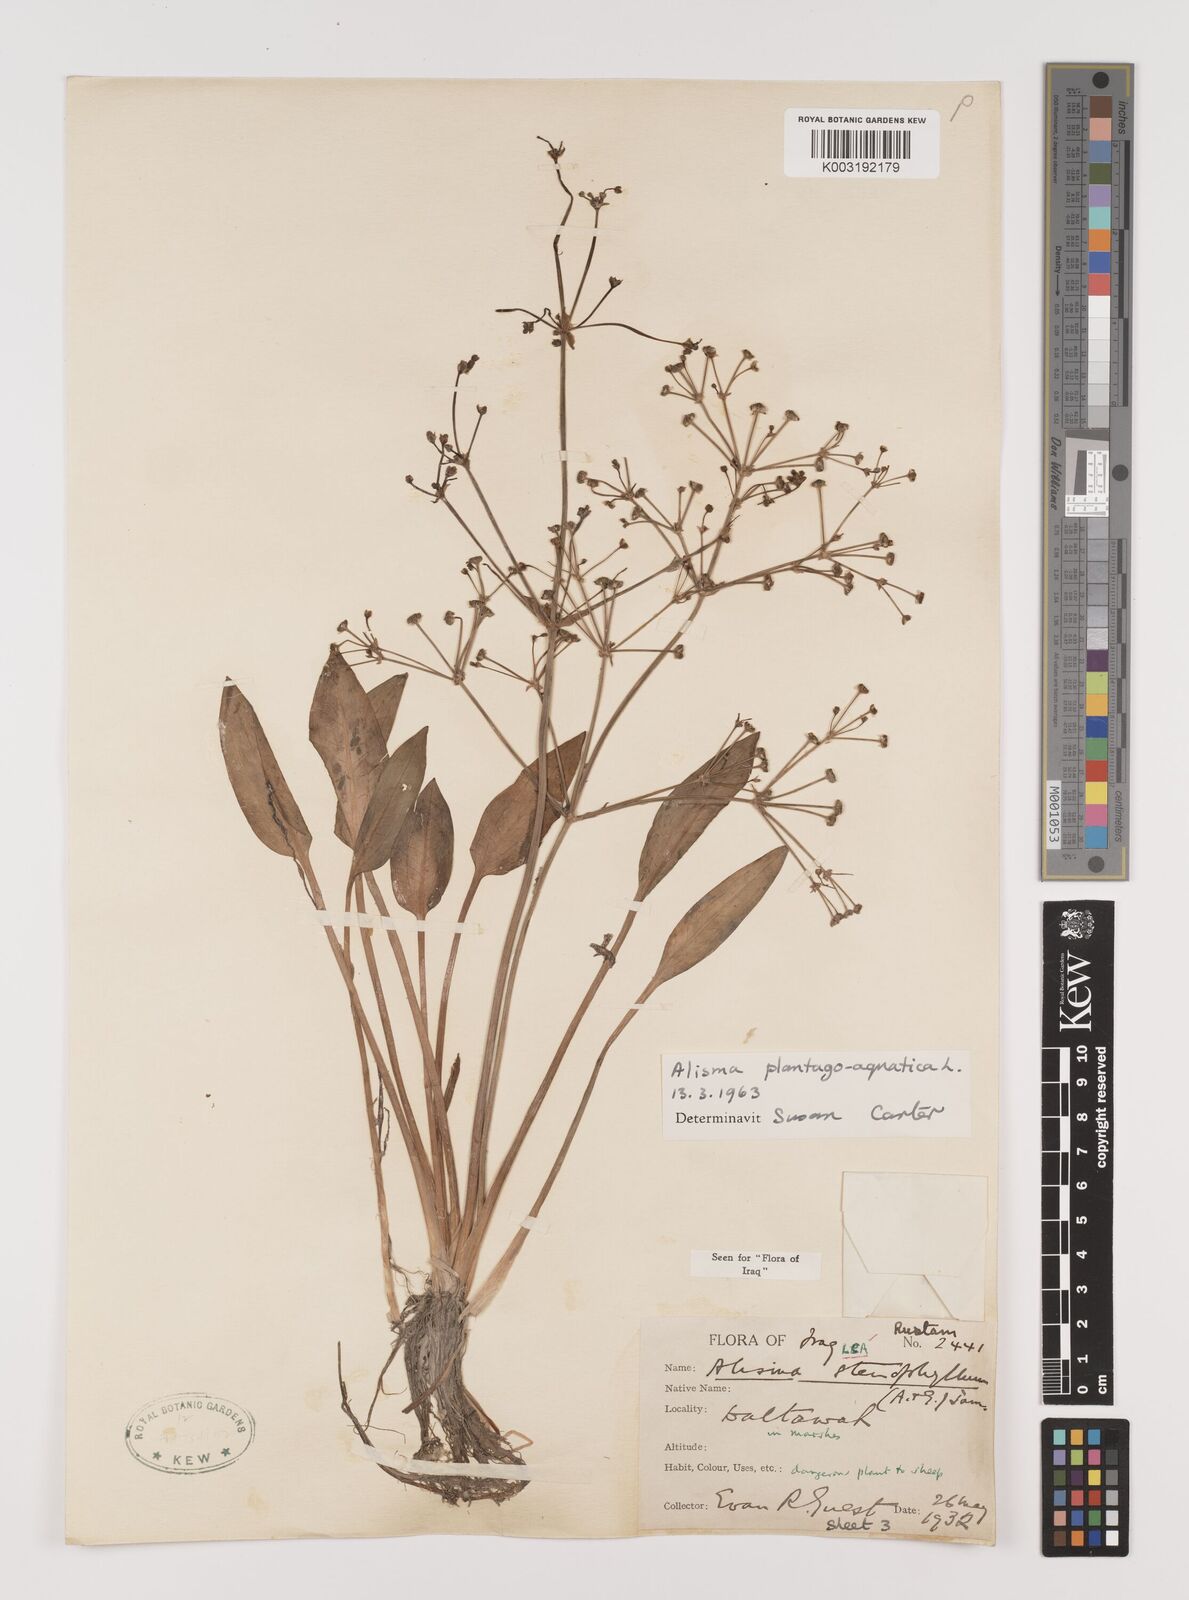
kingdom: Plantae
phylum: Tracheophyta
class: Liliopsida
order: Alismatales
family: Alismataceae
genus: Alisma
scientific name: Alisma plantago-aquatica
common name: Water-plantain
